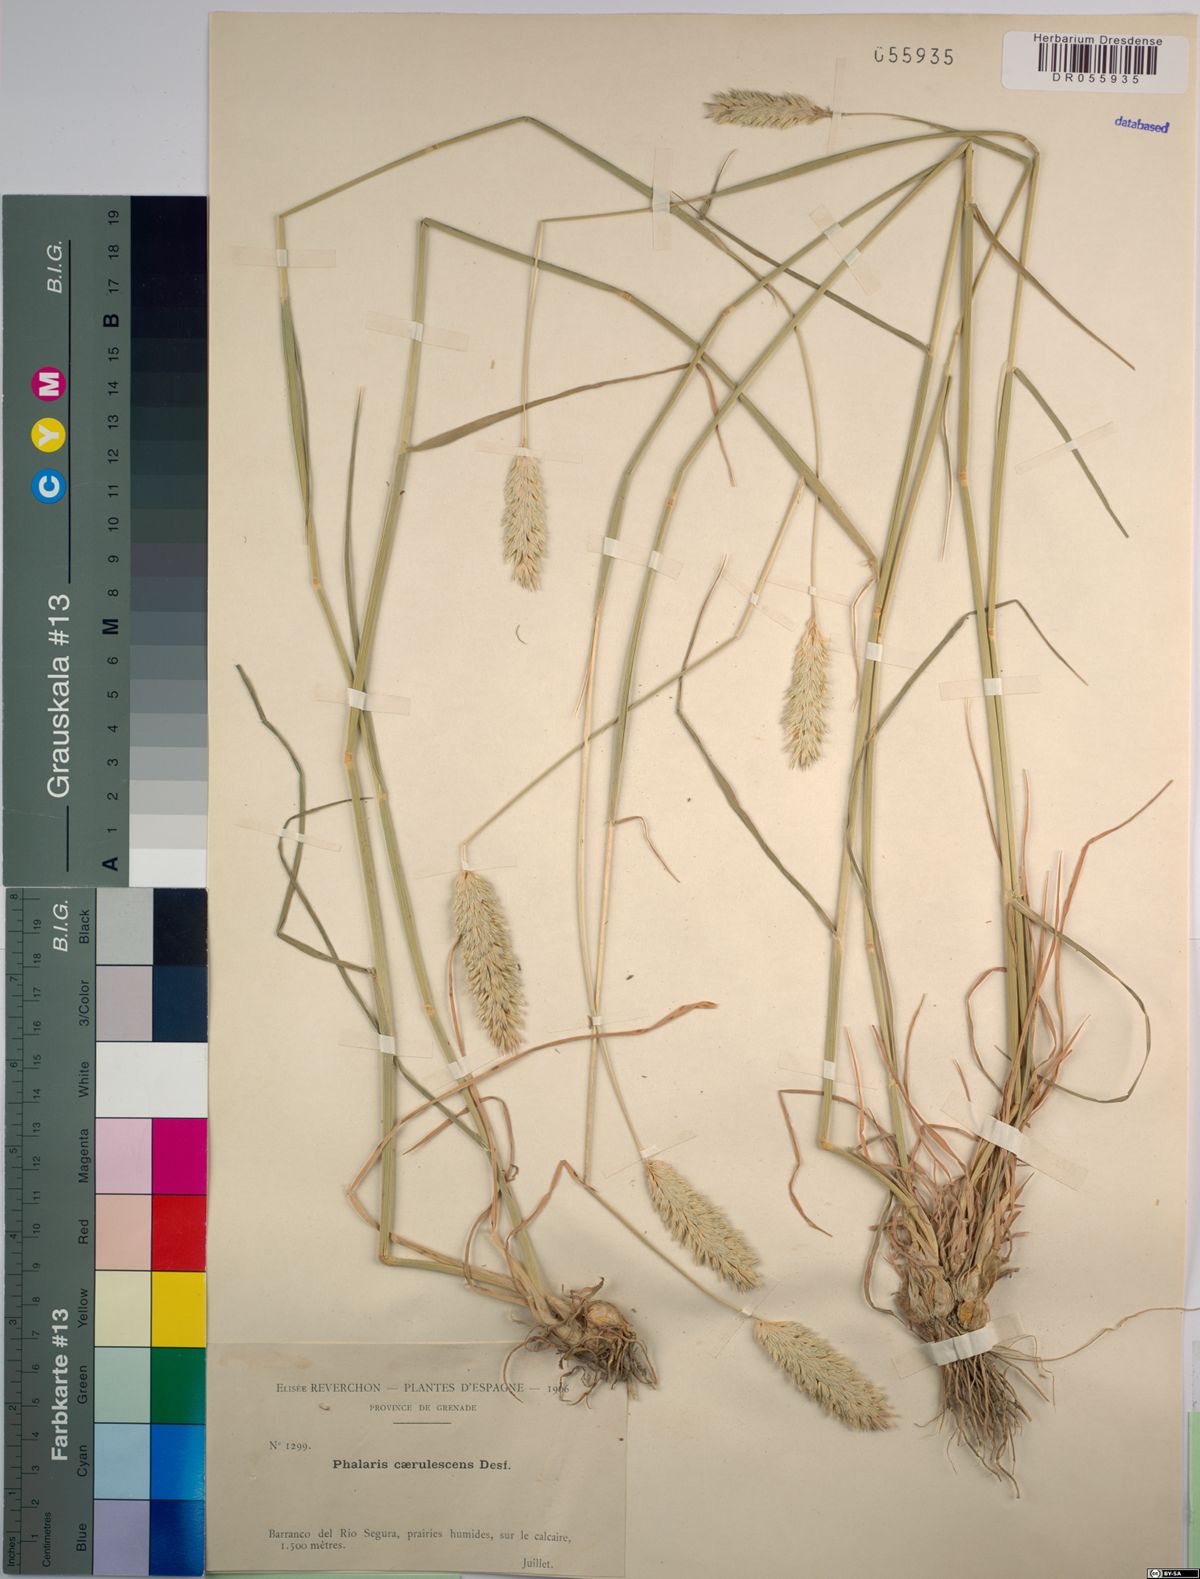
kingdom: Plantae
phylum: Tracheophyta
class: Liliopsida
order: Poales
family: Poaceae
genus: Phalaris
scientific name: Phalaris coerulescens
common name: Sunolgrass
